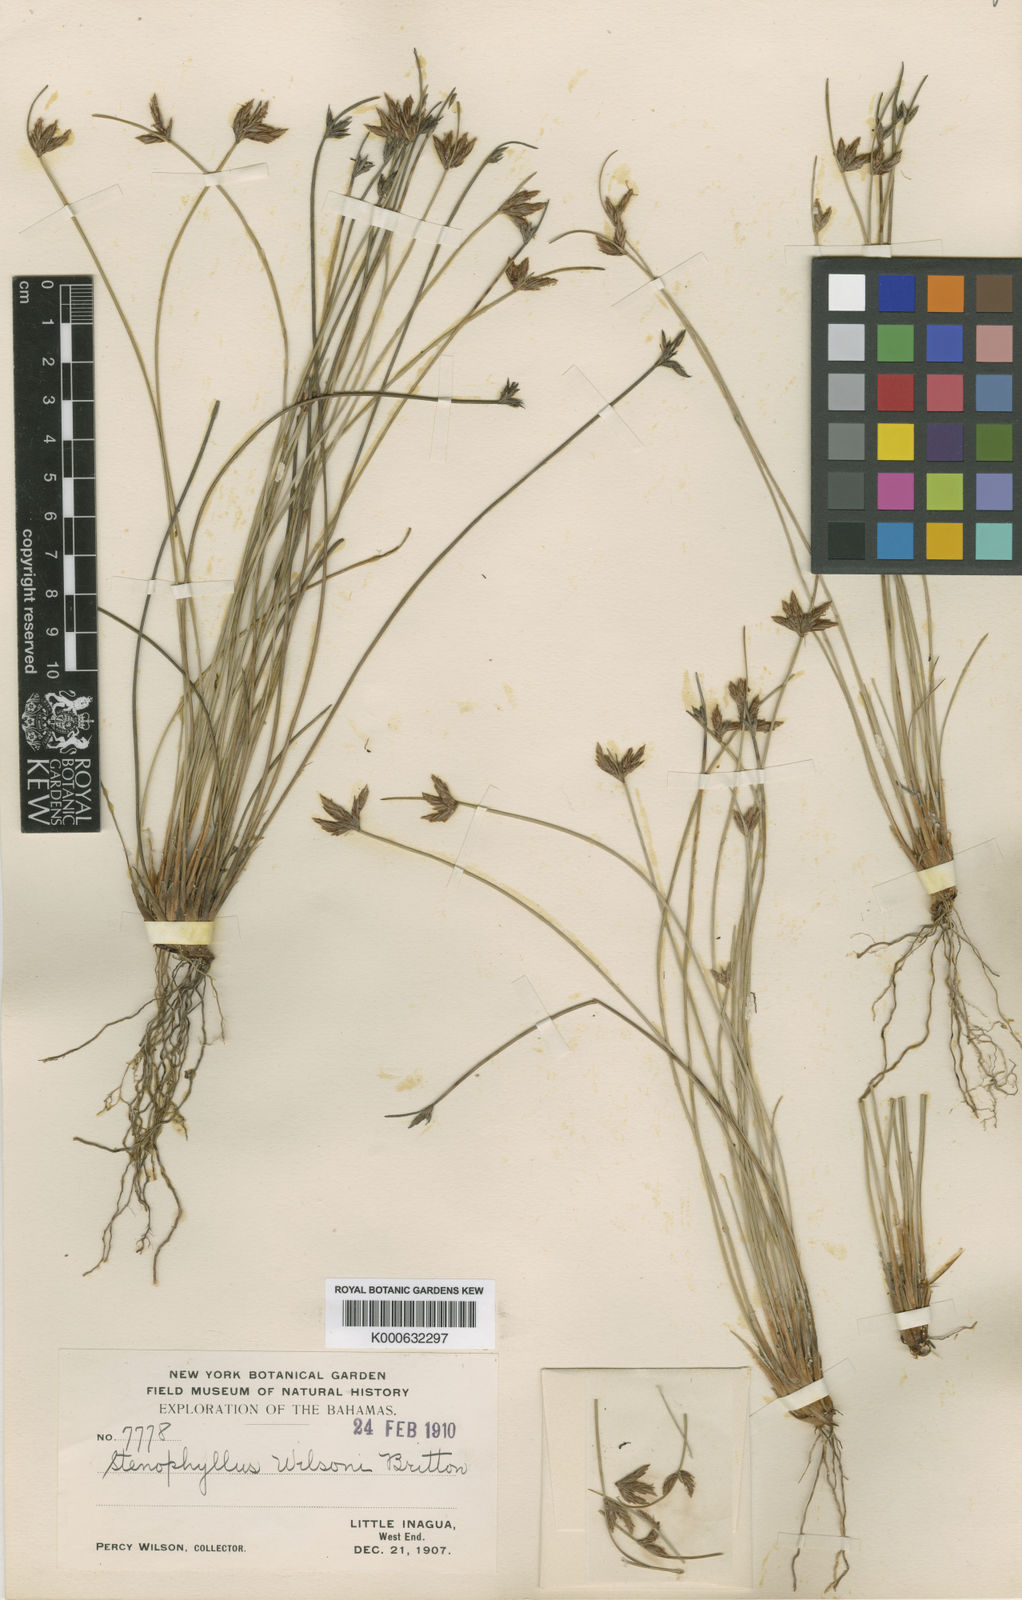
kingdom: Plantae
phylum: Tracheophyta
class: Liliopsida
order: Poales
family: Cyperaceae
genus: Bulbostylis
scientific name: Bulbostylis
